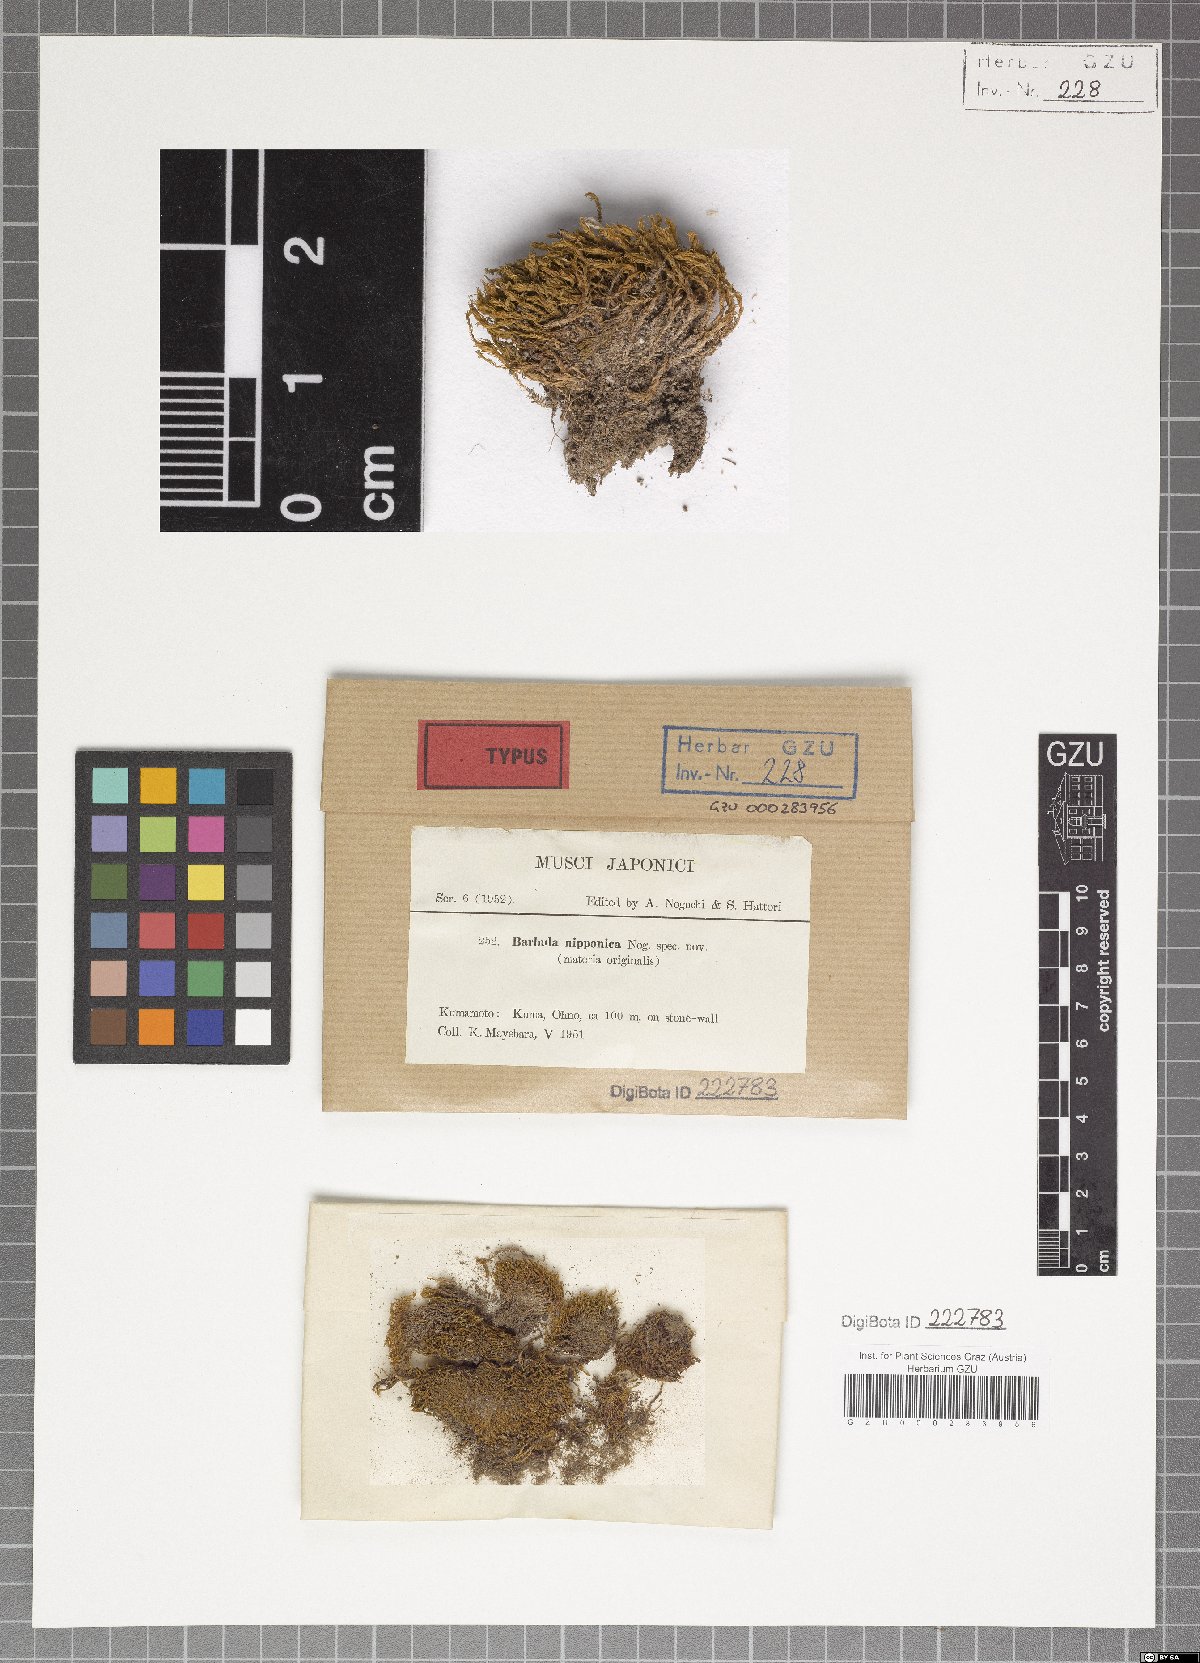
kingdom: Plantae
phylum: Bryophyta
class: Bryopsida
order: Pottiales
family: Pottiaceae
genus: Vinealobryum
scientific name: Vinealobryum vineale
